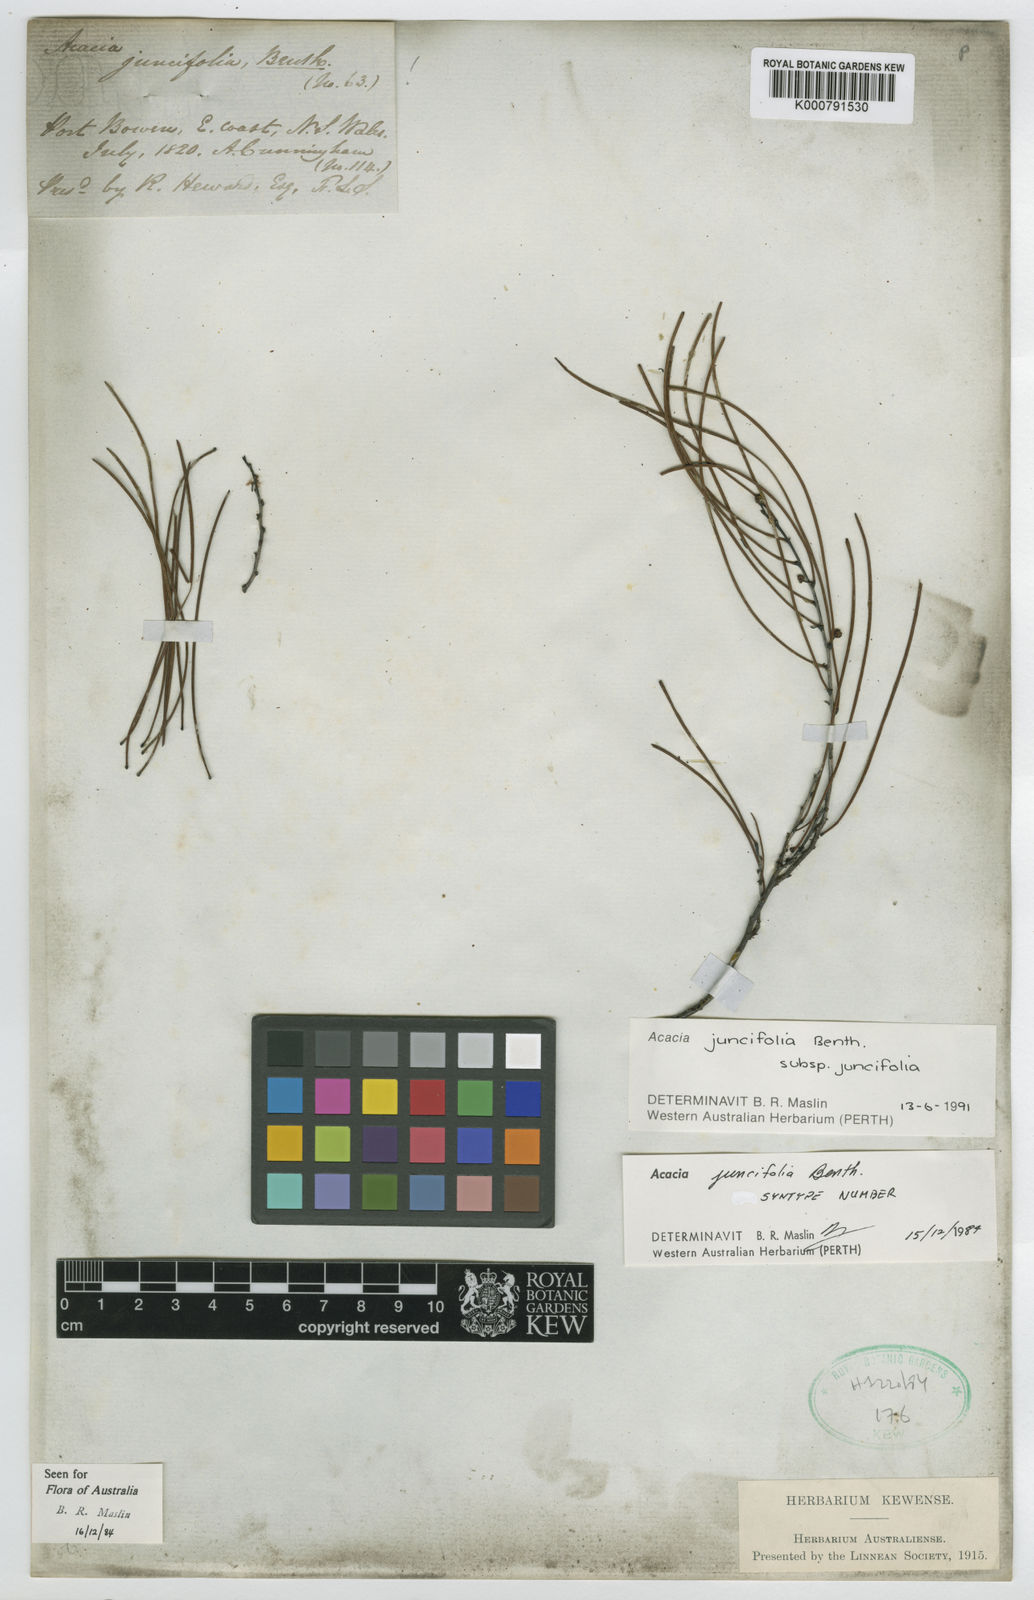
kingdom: Plantae
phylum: Tracheophyta
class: Magnoliopsida
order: Fabales
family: Fabaceae
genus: Acacia
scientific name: Acacia juncifolia
